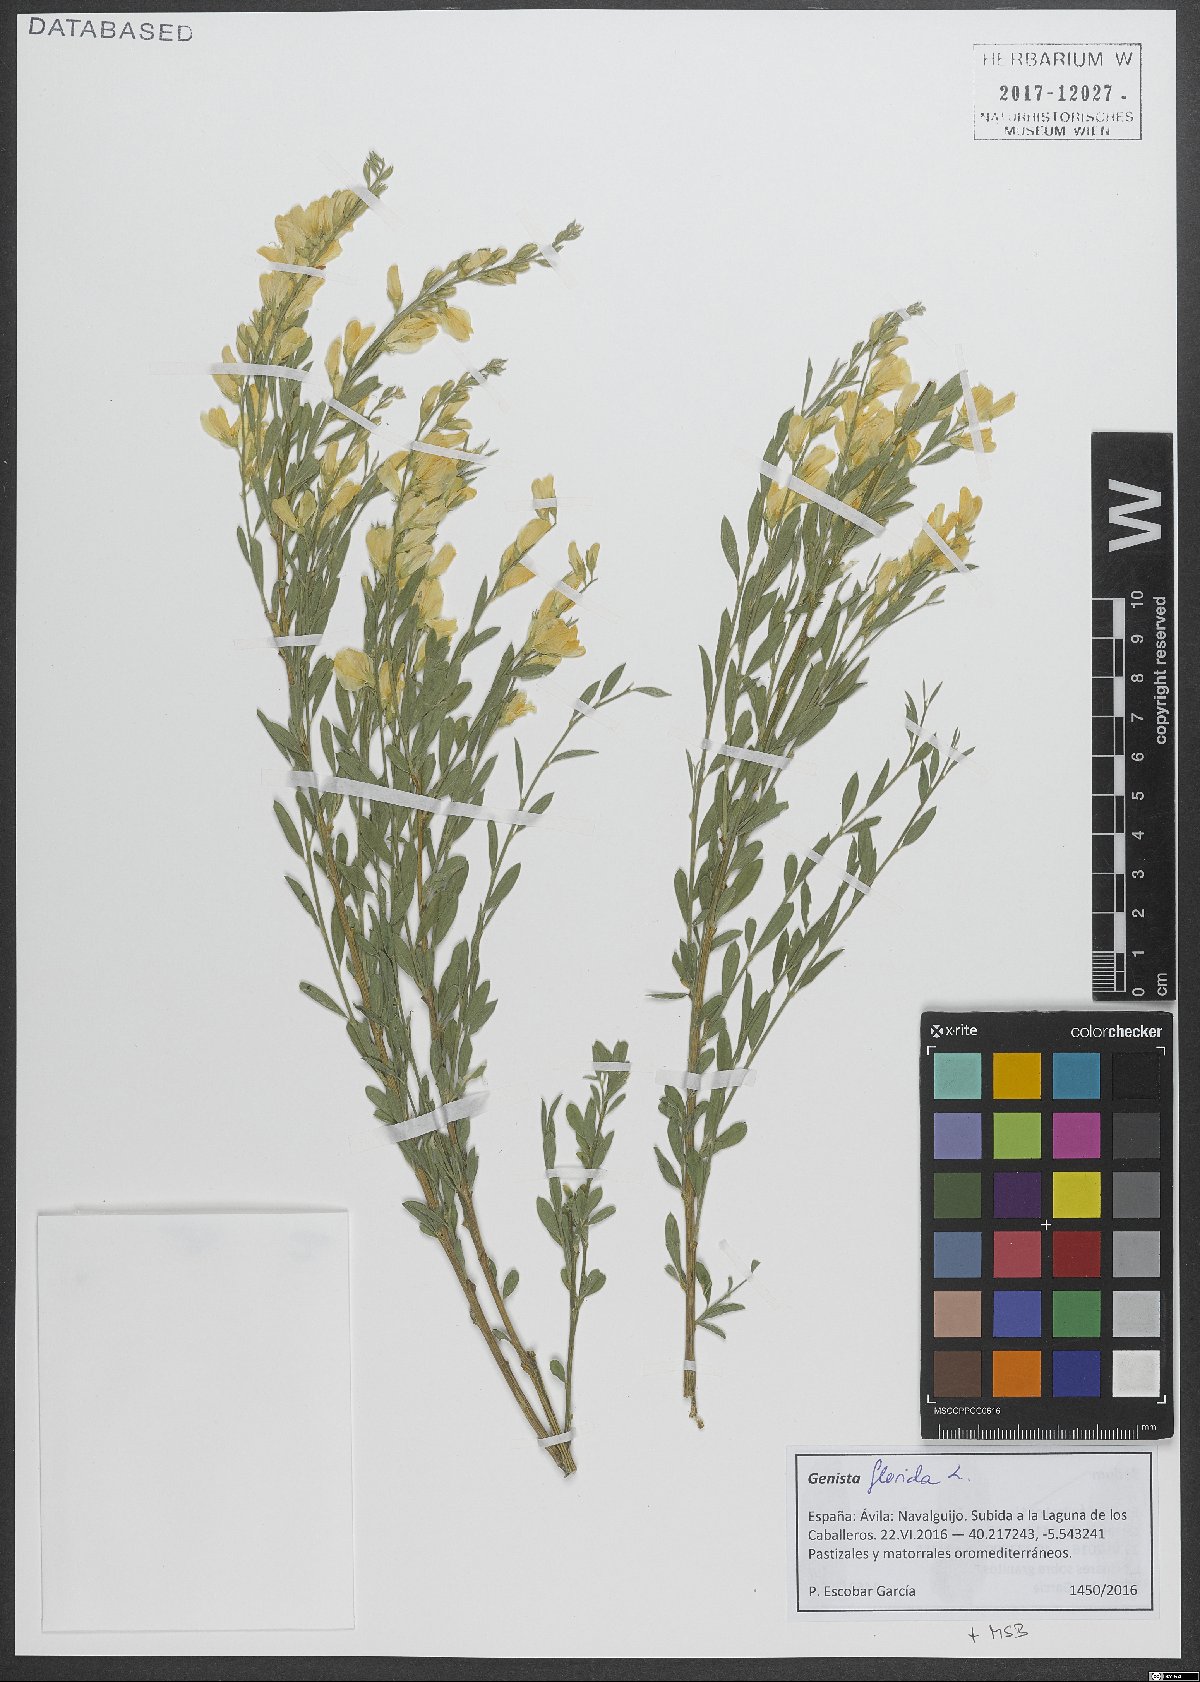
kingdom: Plantae
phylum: Tracheophyta
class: Magnoliopsida
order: Fabales
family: Fabaceae
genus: Genista
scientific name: Genista florida
